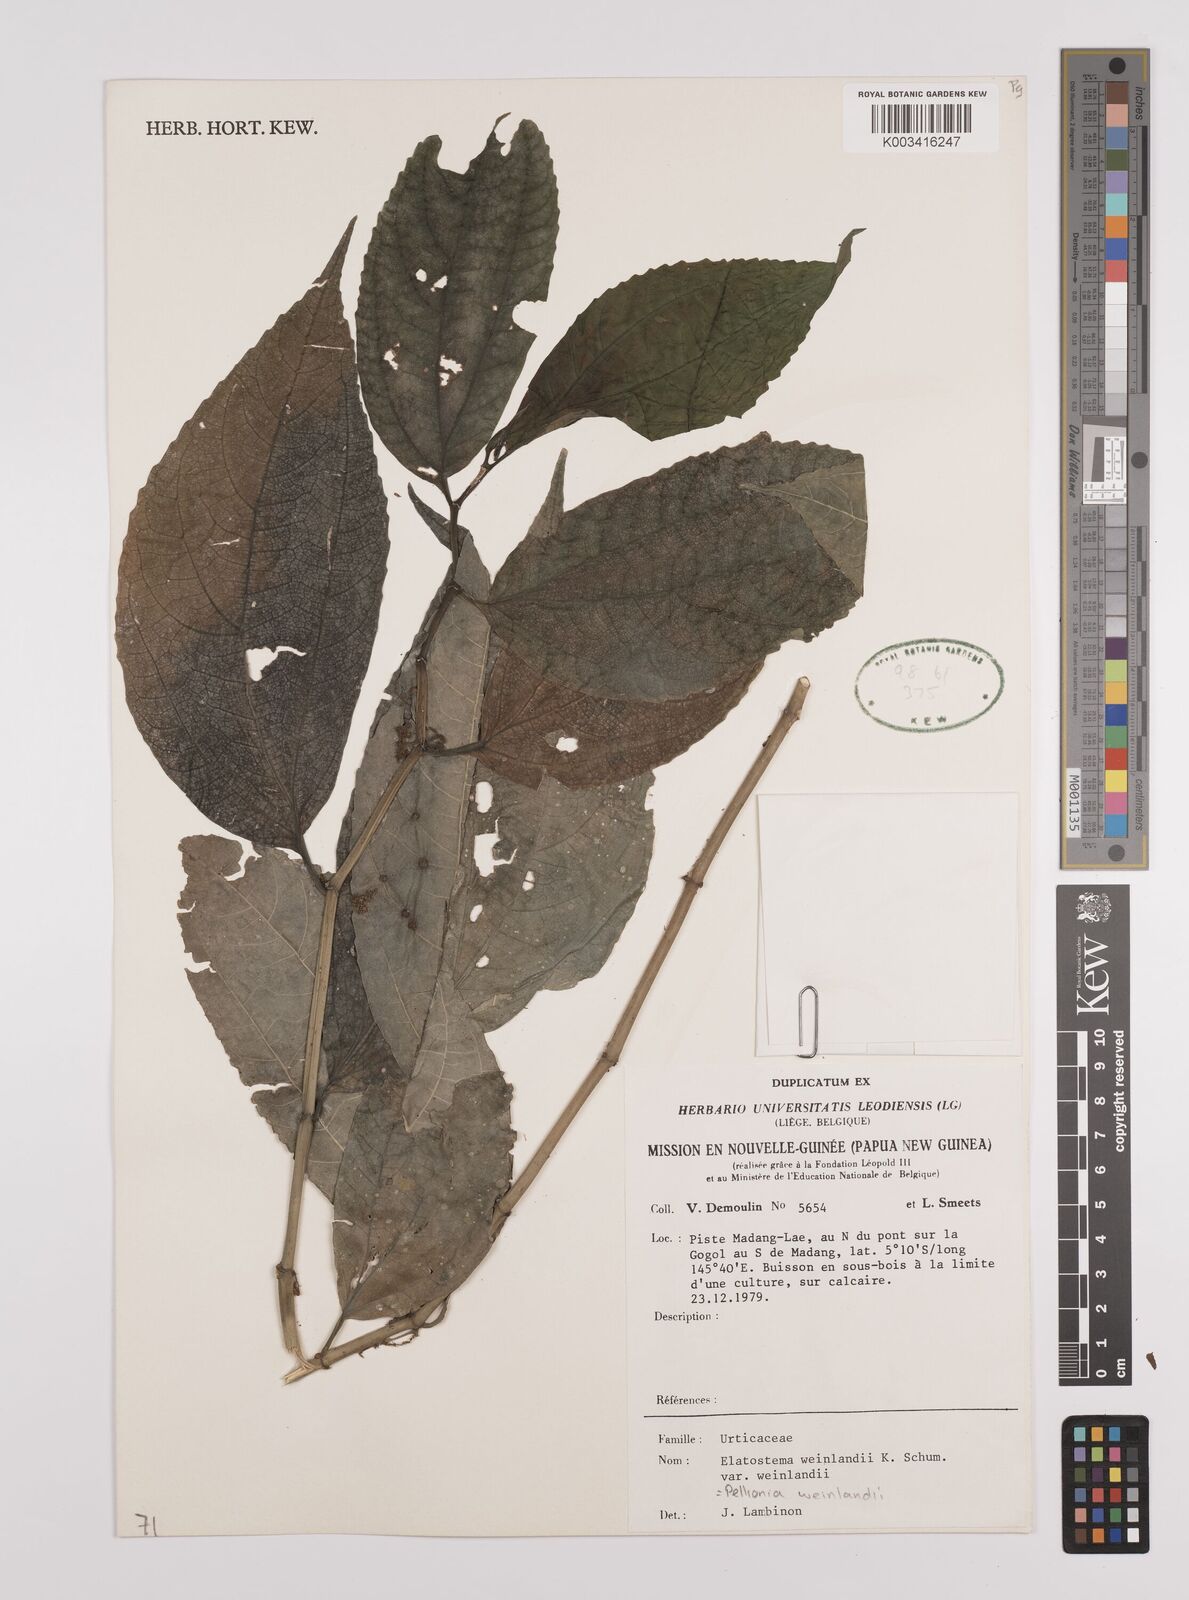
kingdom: Plantae
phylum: Tracheophyta
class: Magnoliopsida
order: Rosales
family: Urticaceae
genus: Elatostema
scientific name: Elatostema weinlandii
